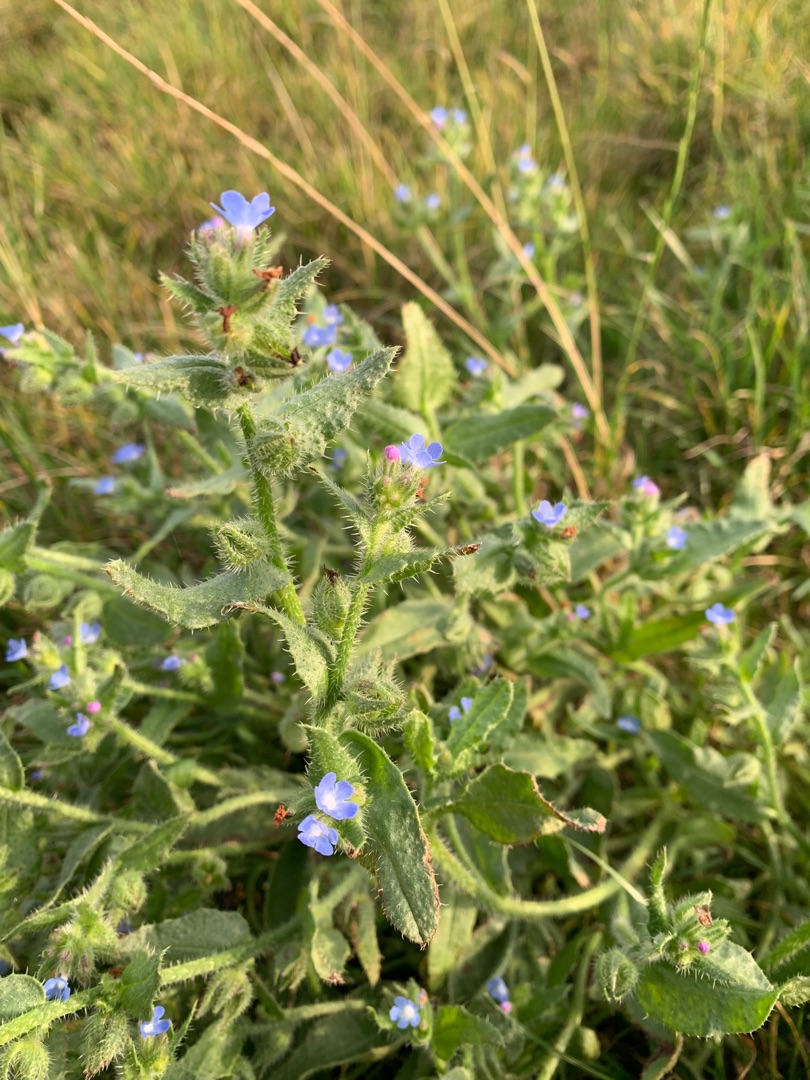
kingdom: Plantae
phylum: Tracheophyta
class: Magnoliopsida
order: Boraginales
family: Boraginaceae
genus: Lycopsis
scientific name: Lycopsis arvensis
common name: Krumhals
